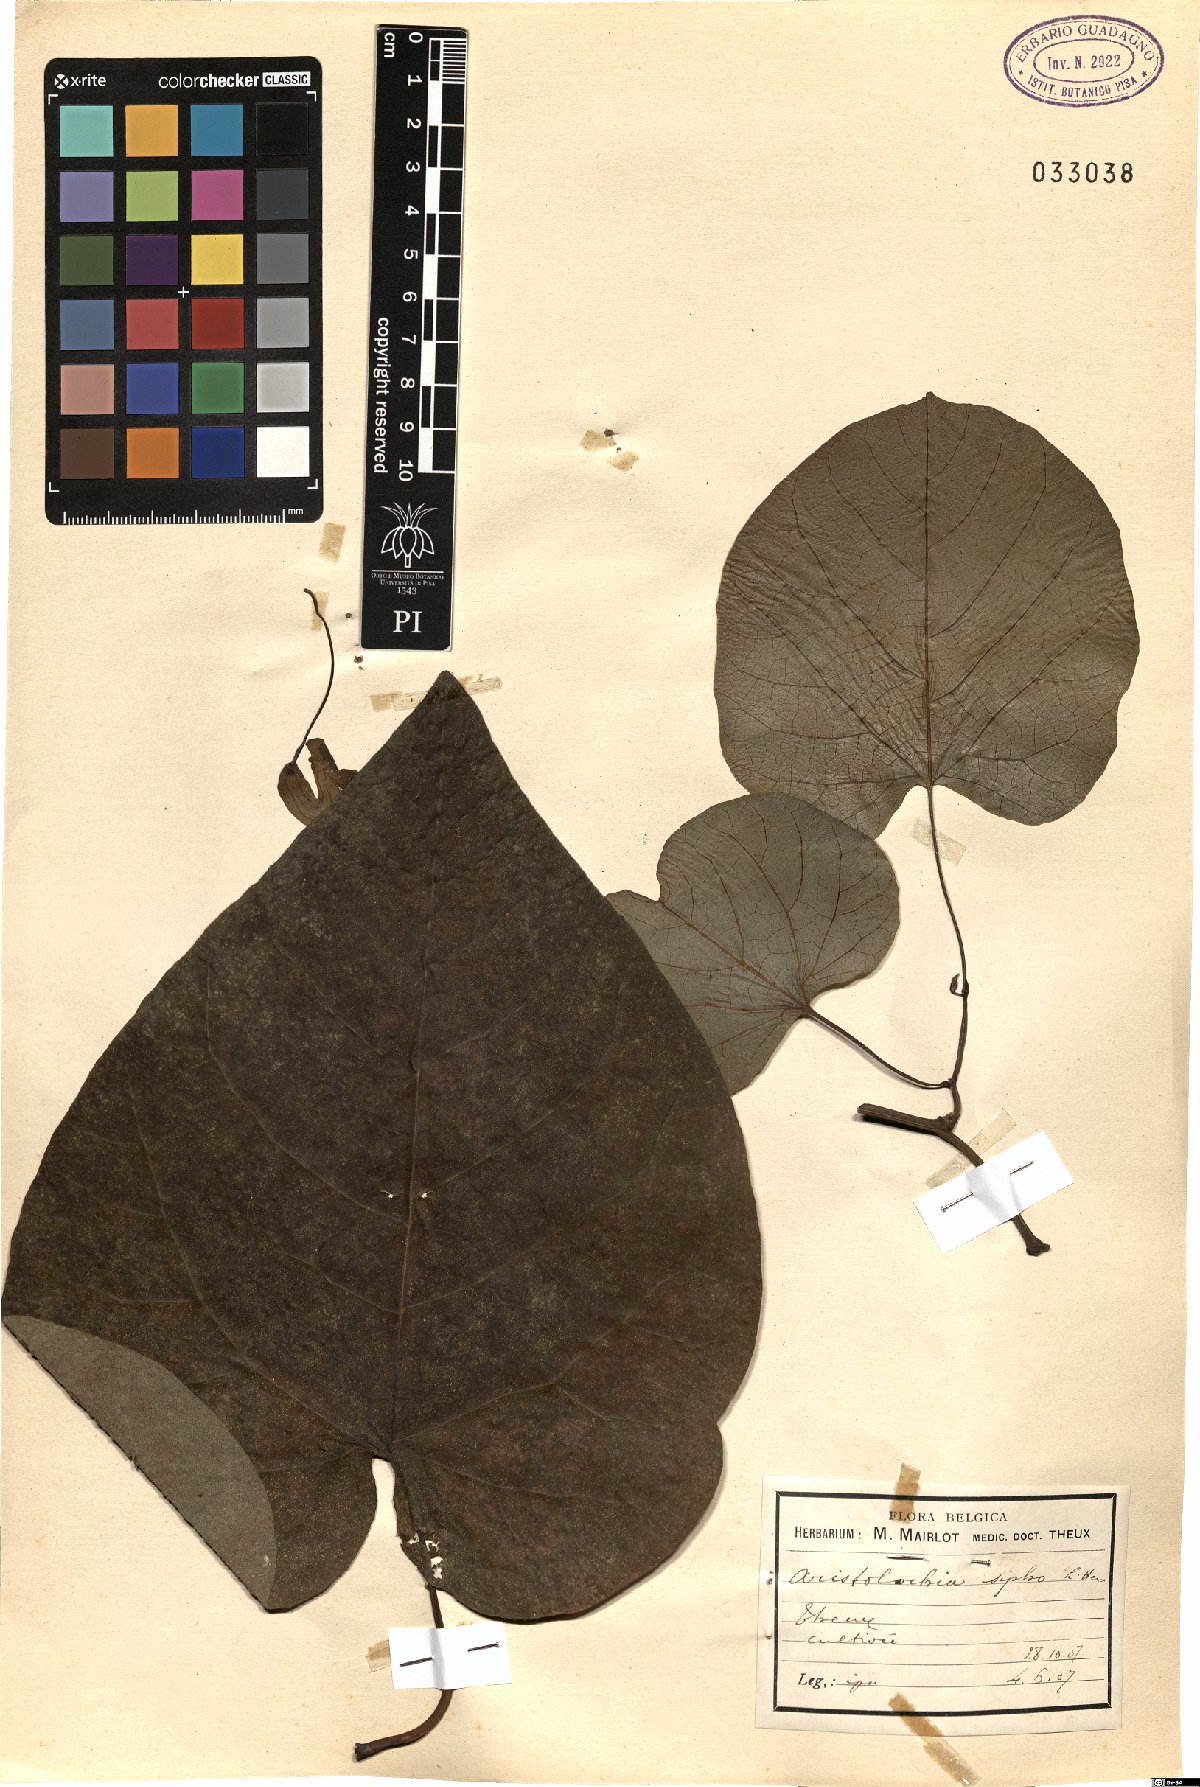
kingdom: Plantae
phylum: Tracheophyta
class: Magnoliopsida
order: Piperales
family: Aristolochiaceae
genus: Isotrema
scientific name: Isotrema macrophyllum
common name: Dutchman's-pipe
